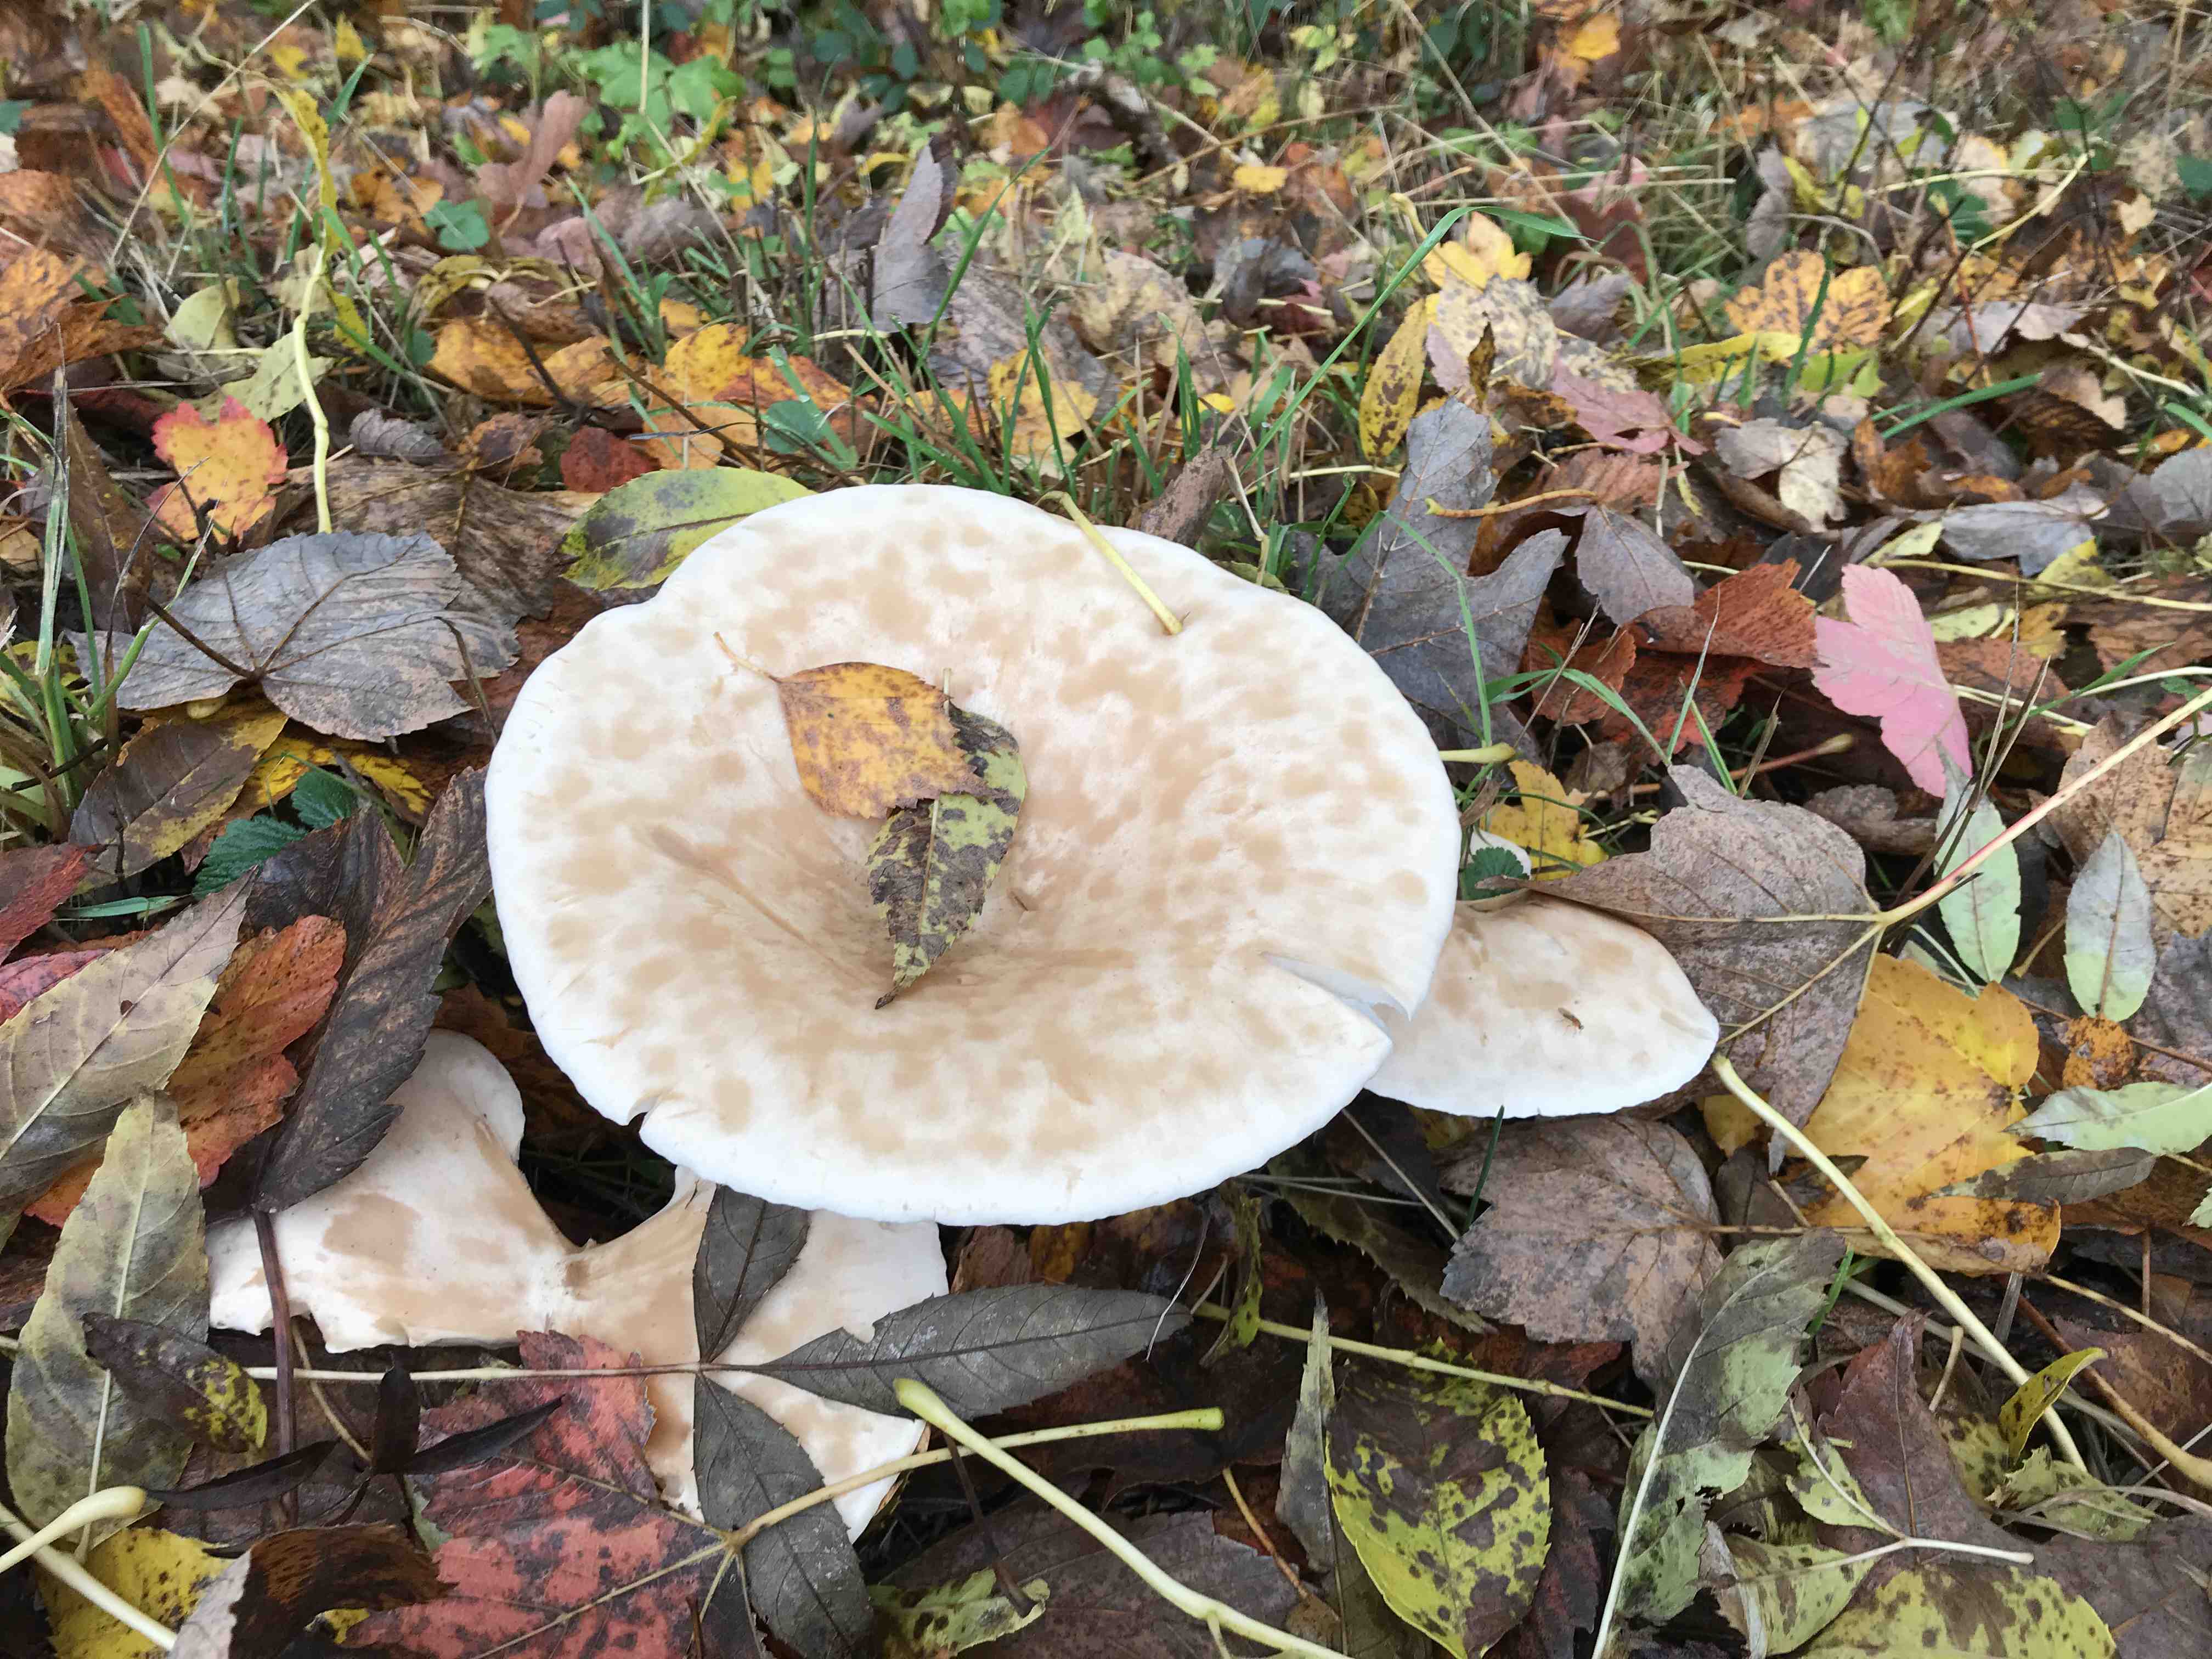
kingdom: Fungi
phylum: Basidiomycota
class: Agaricomycetes
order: Agaricales
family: Tricholomataceae
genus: Infundibulicybe
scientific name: Infundibulicybe geotropa
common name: stor tragthat
